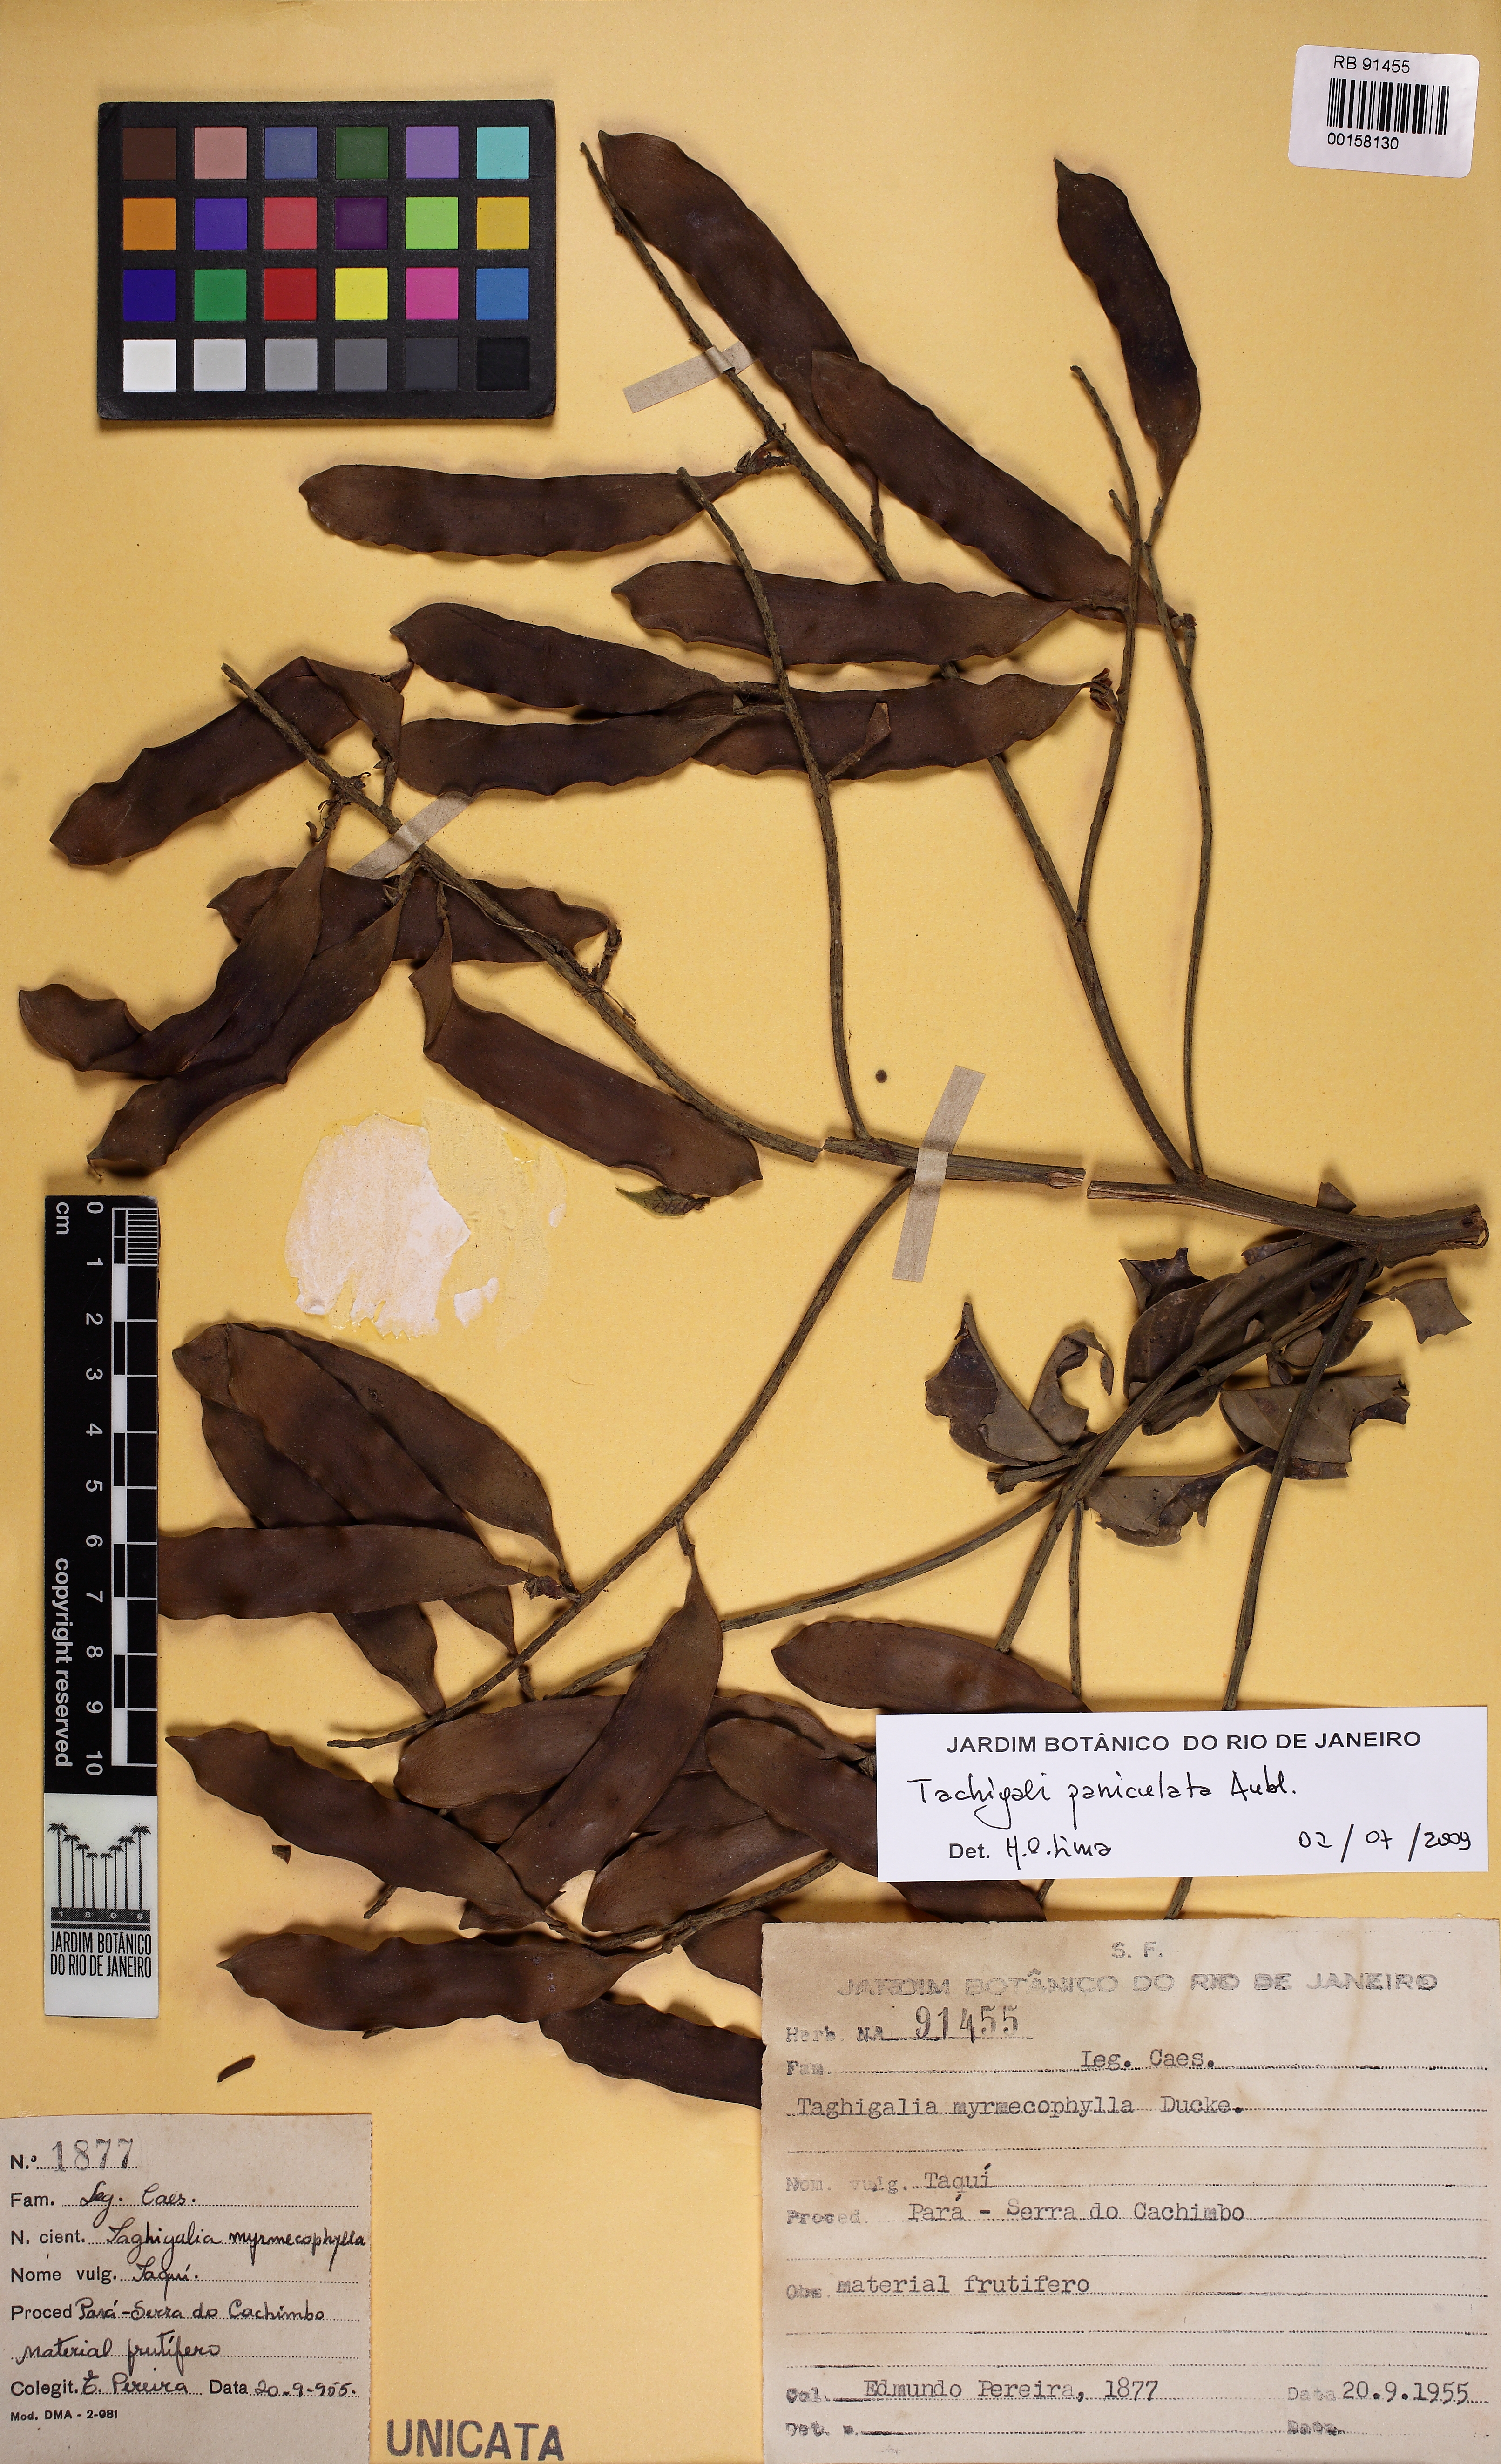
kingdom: Plantae
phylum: Tracheophyta
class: Magnoliopsida
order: Fabales
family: Fabaceae
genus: Tachigali
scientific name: Tachigali glauca
